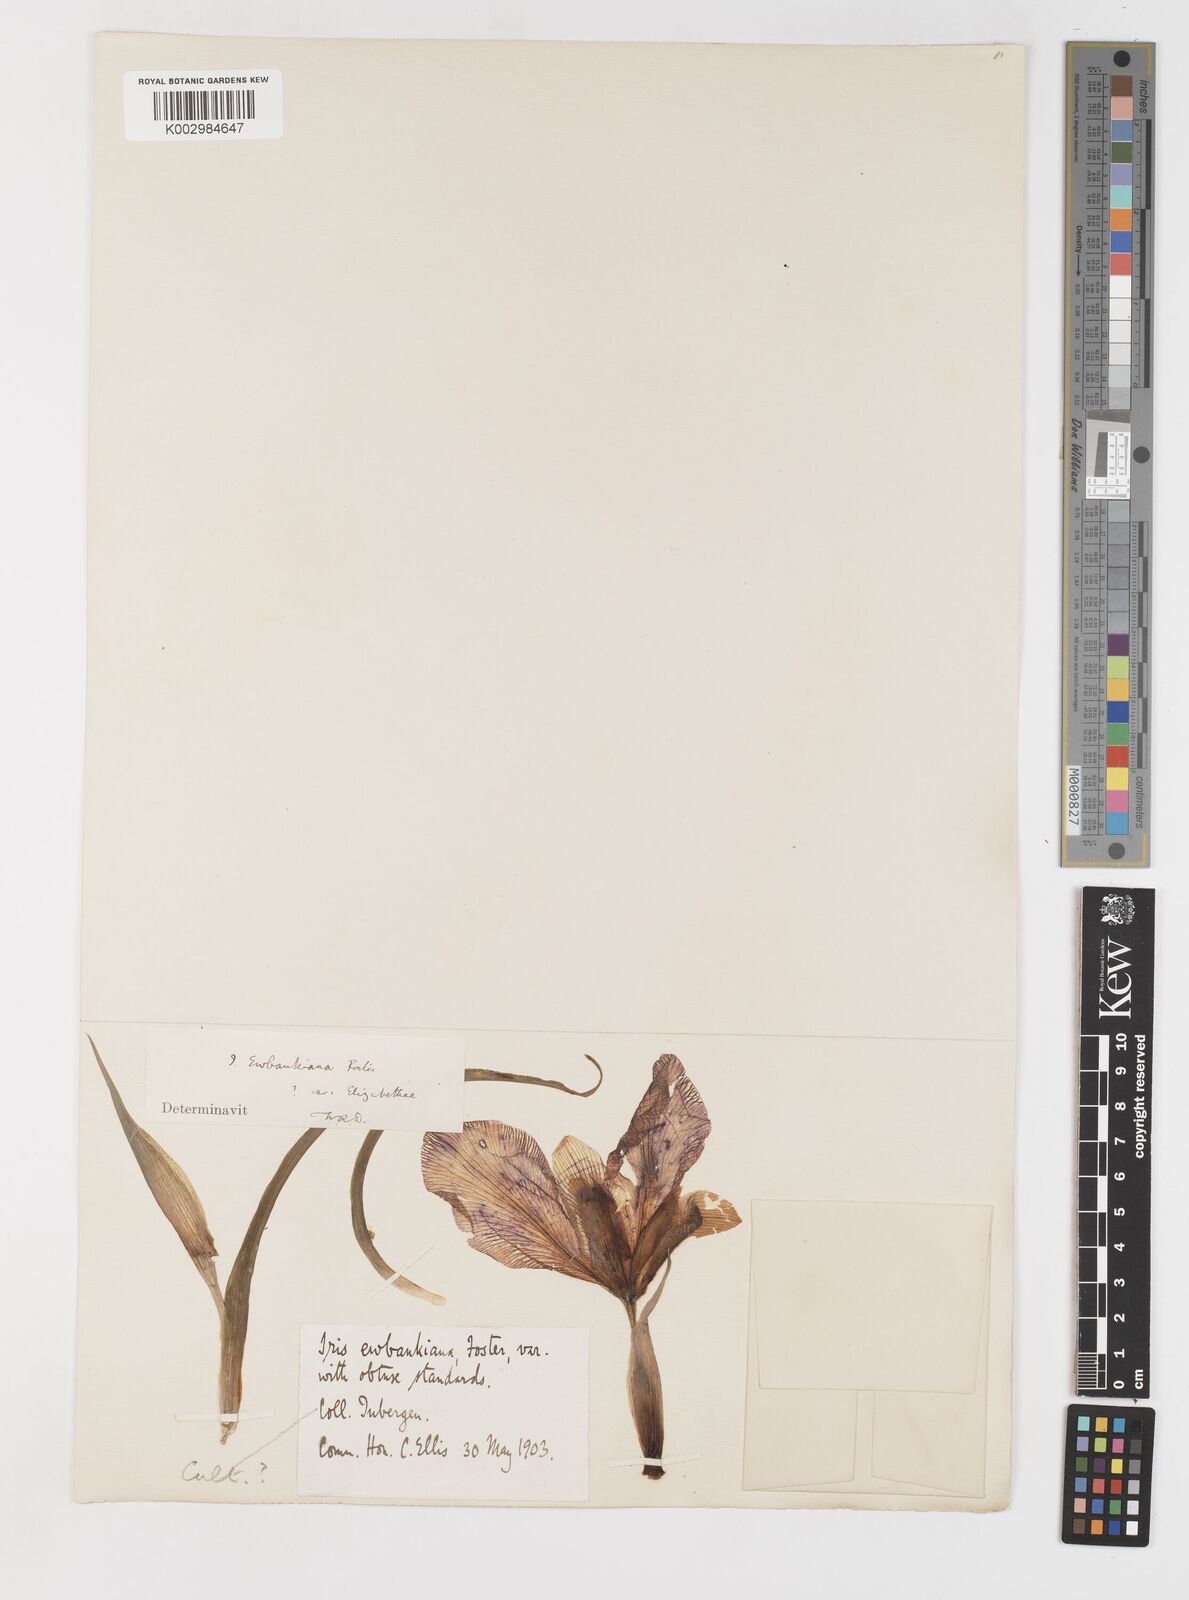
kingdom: Plantae
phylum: Tracheophyta
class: Liliopsida
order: Asparagales
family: Iridaceae
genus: Iris
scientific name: Iris acutiloba
